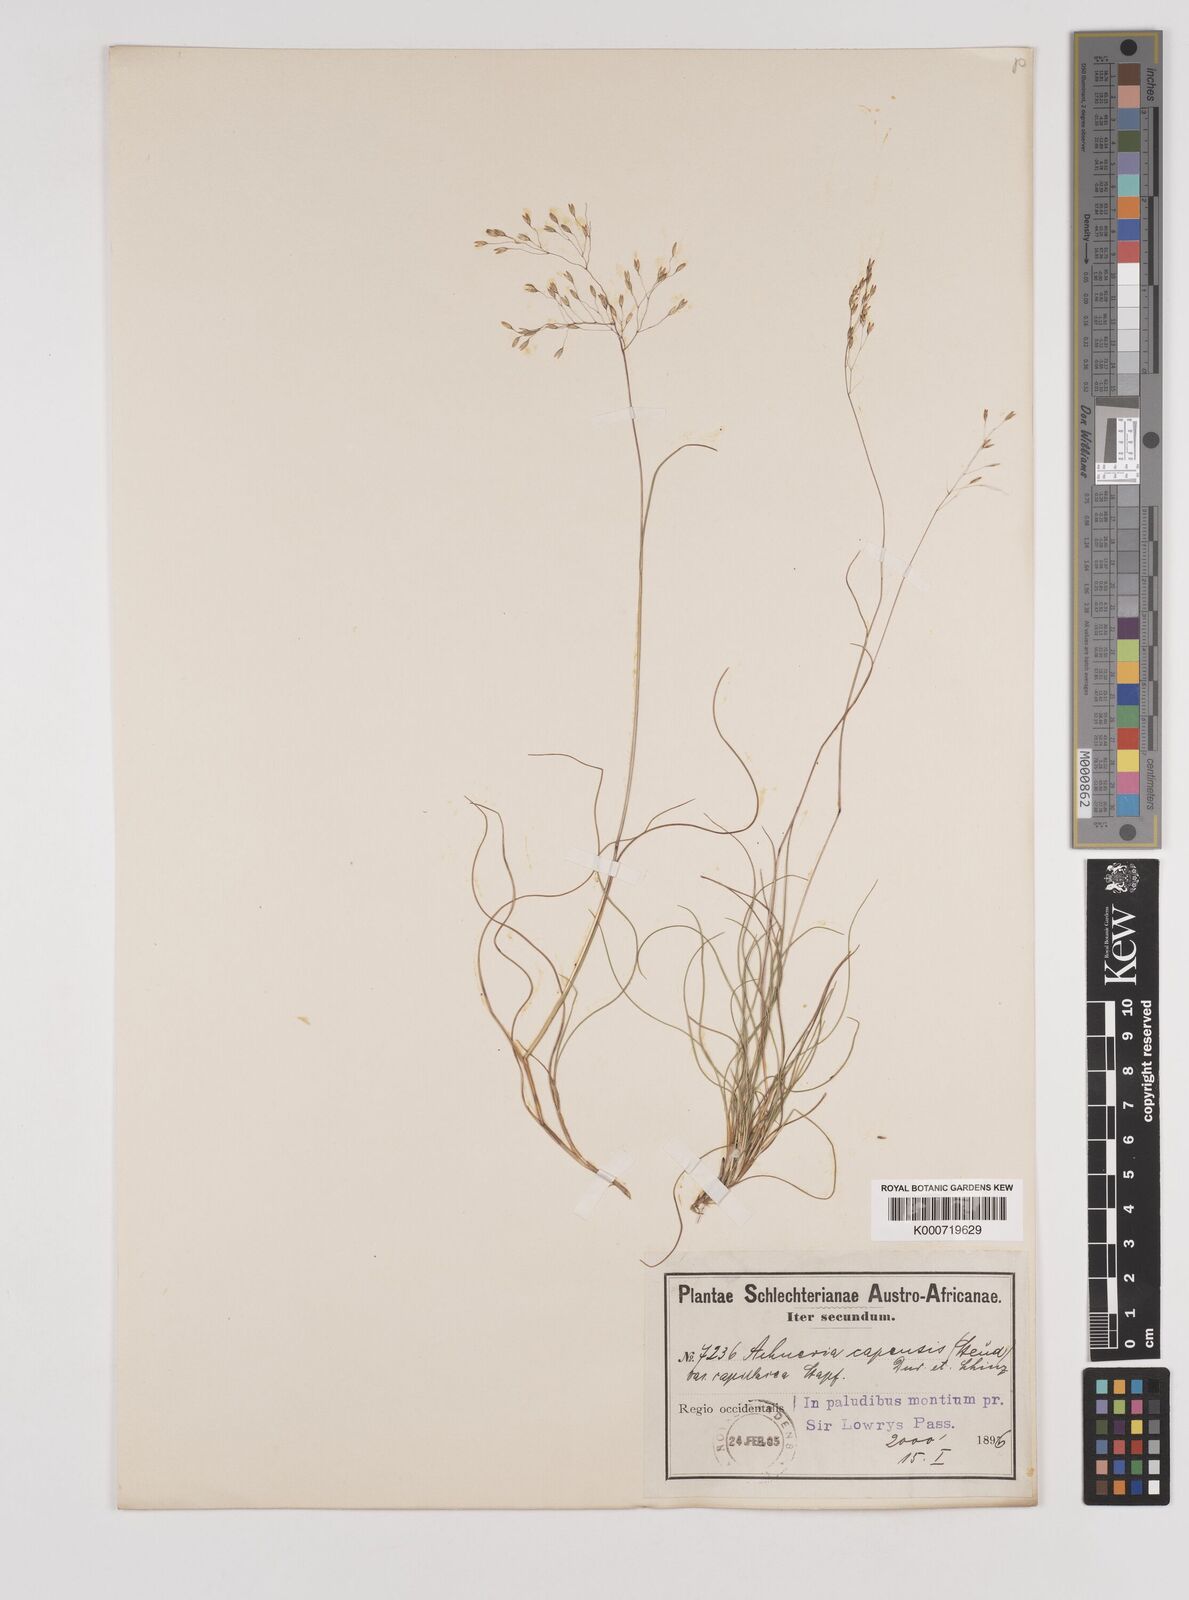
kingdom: Plantae
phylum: Tracheophyta
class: Liliopsida
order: Poales
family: Poaceae
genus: Pentameris
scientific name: Pentameris malouinensis
